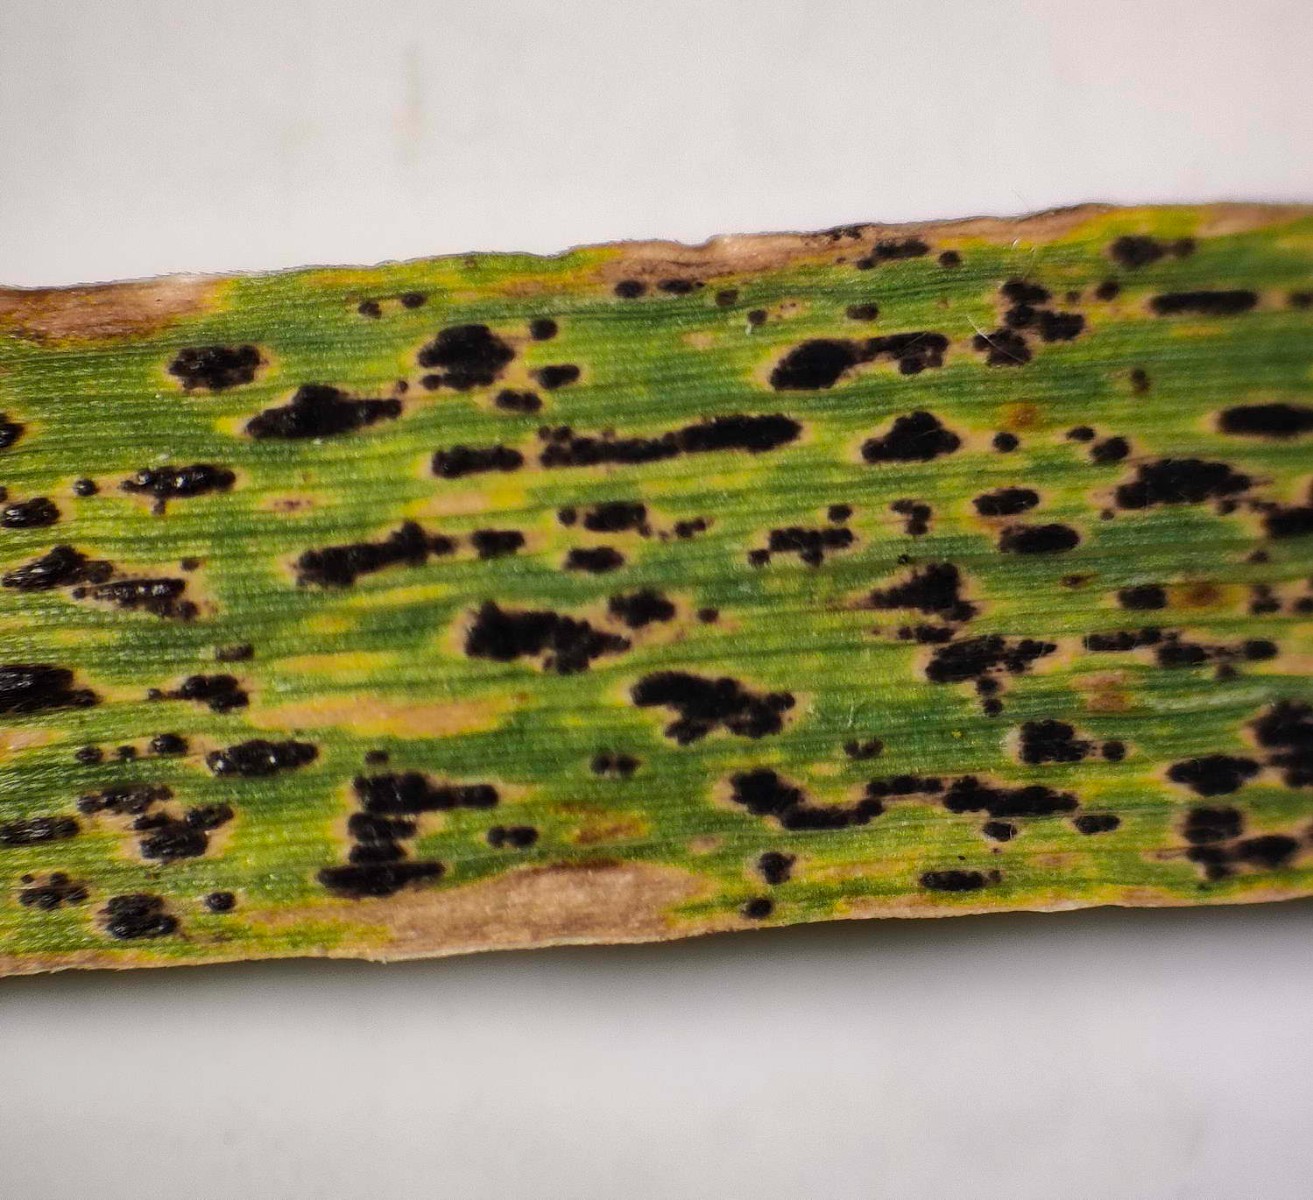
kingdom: Fungi
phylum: Ascomycota
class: Sordariomycetes
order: Phyllachorales
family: Phyllachoraceae
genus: Phyllachora
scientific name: Phyllachora graminis
